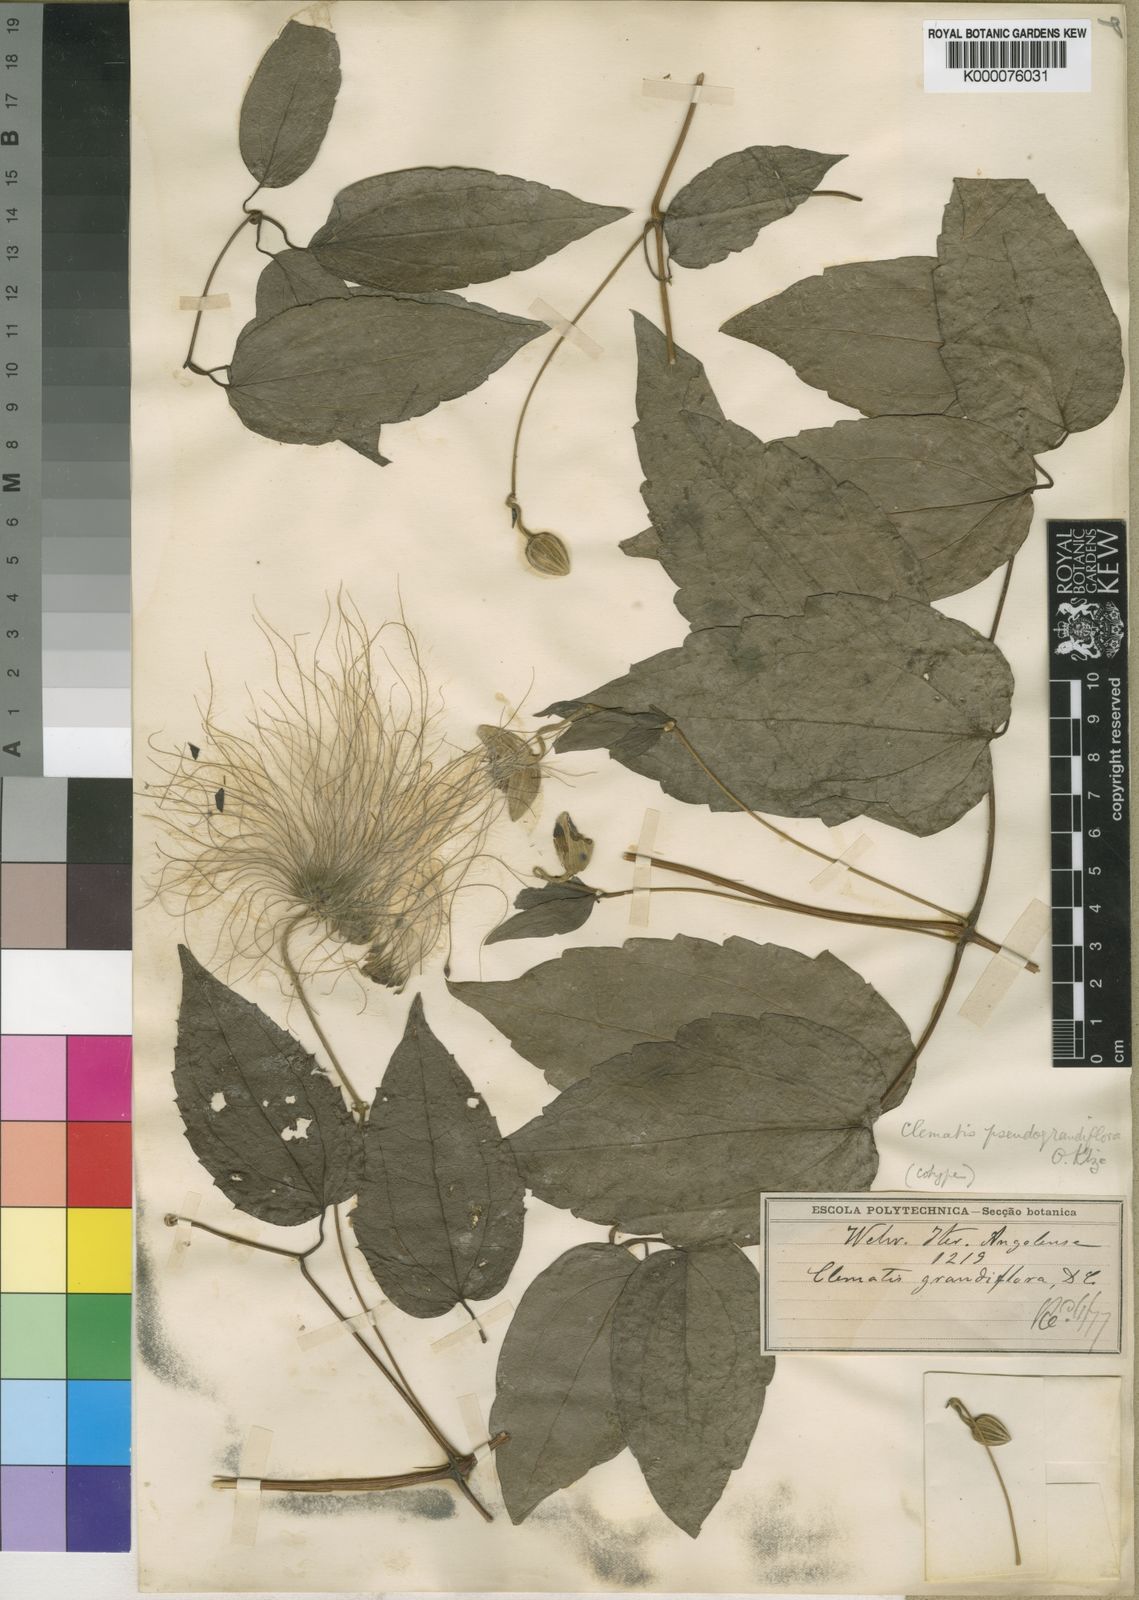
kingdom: Plantae
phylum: Tracheophyta
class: Magnoliopsida
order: Ranunculales
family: Ranunculaceae
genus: Clematis
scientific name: Clematis grandiflora
